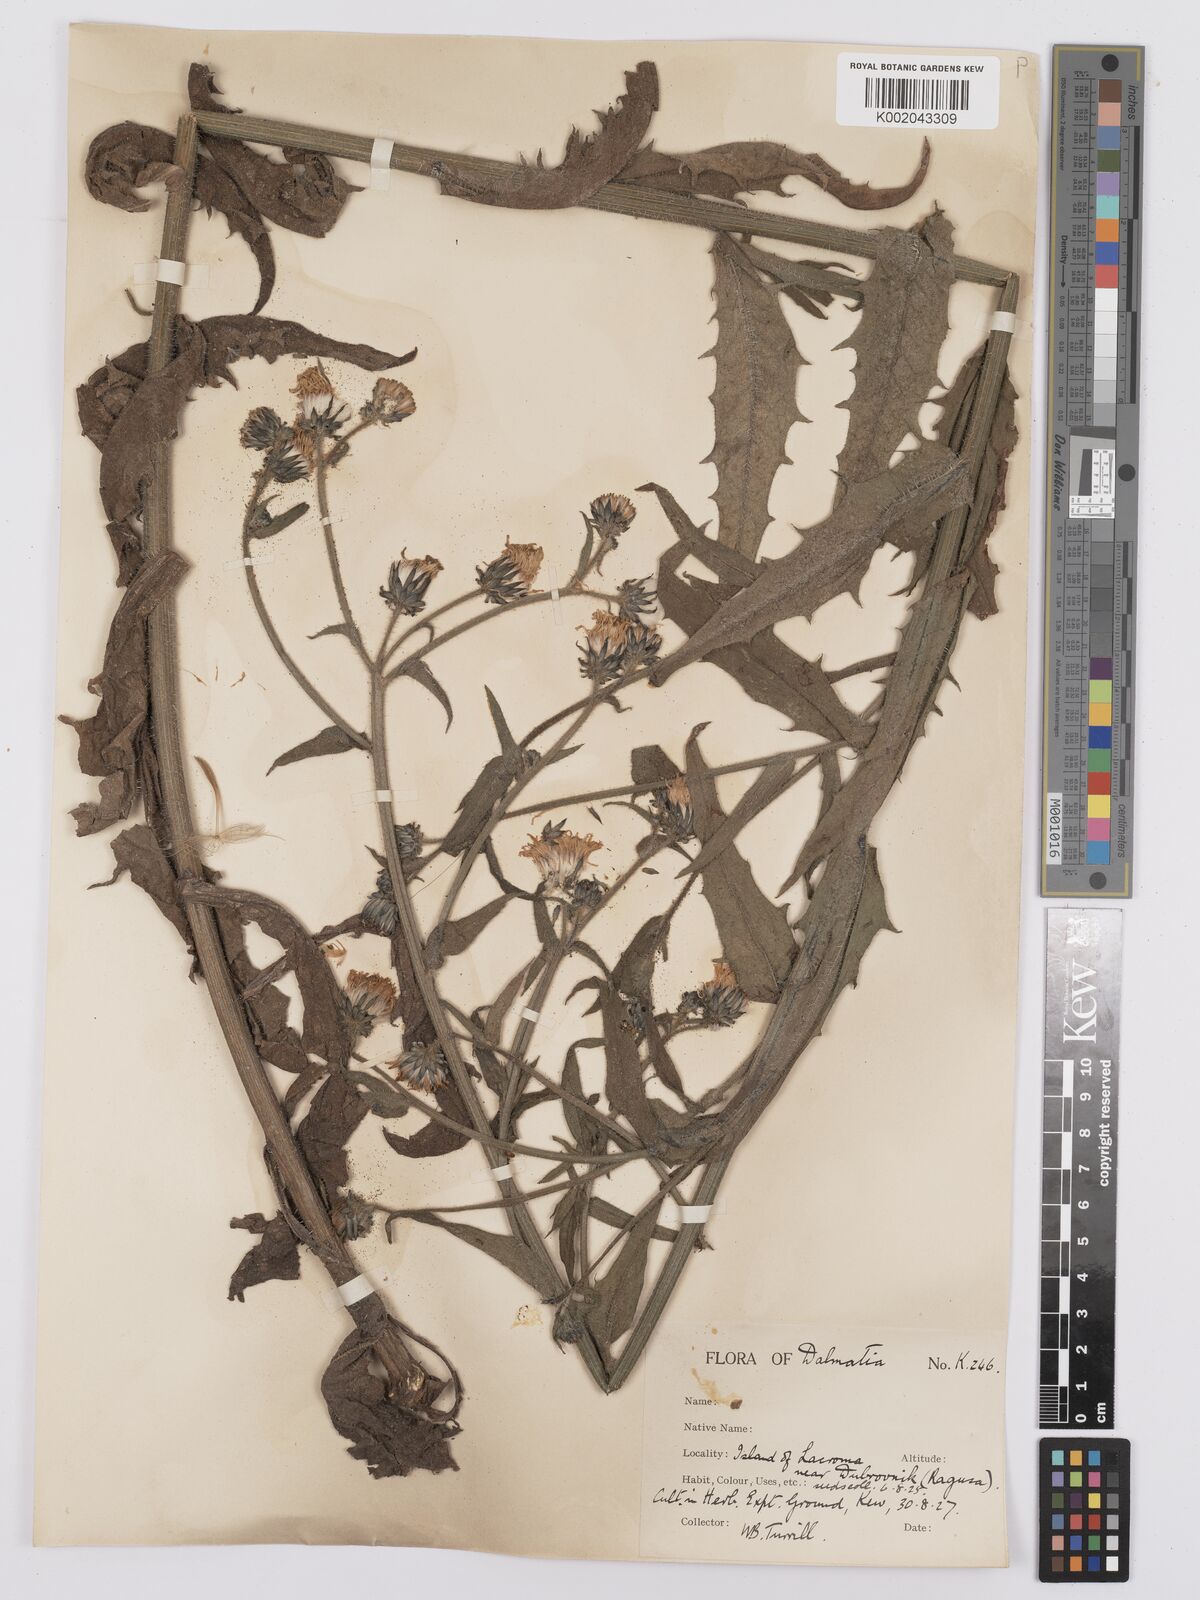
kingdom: Plantae
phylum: Tracheophyta
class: Magnoliopsida
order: Asterales
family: Asteraceae
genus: Picris
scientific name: Picris hieracioides
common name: Hawkweed oxtongue
